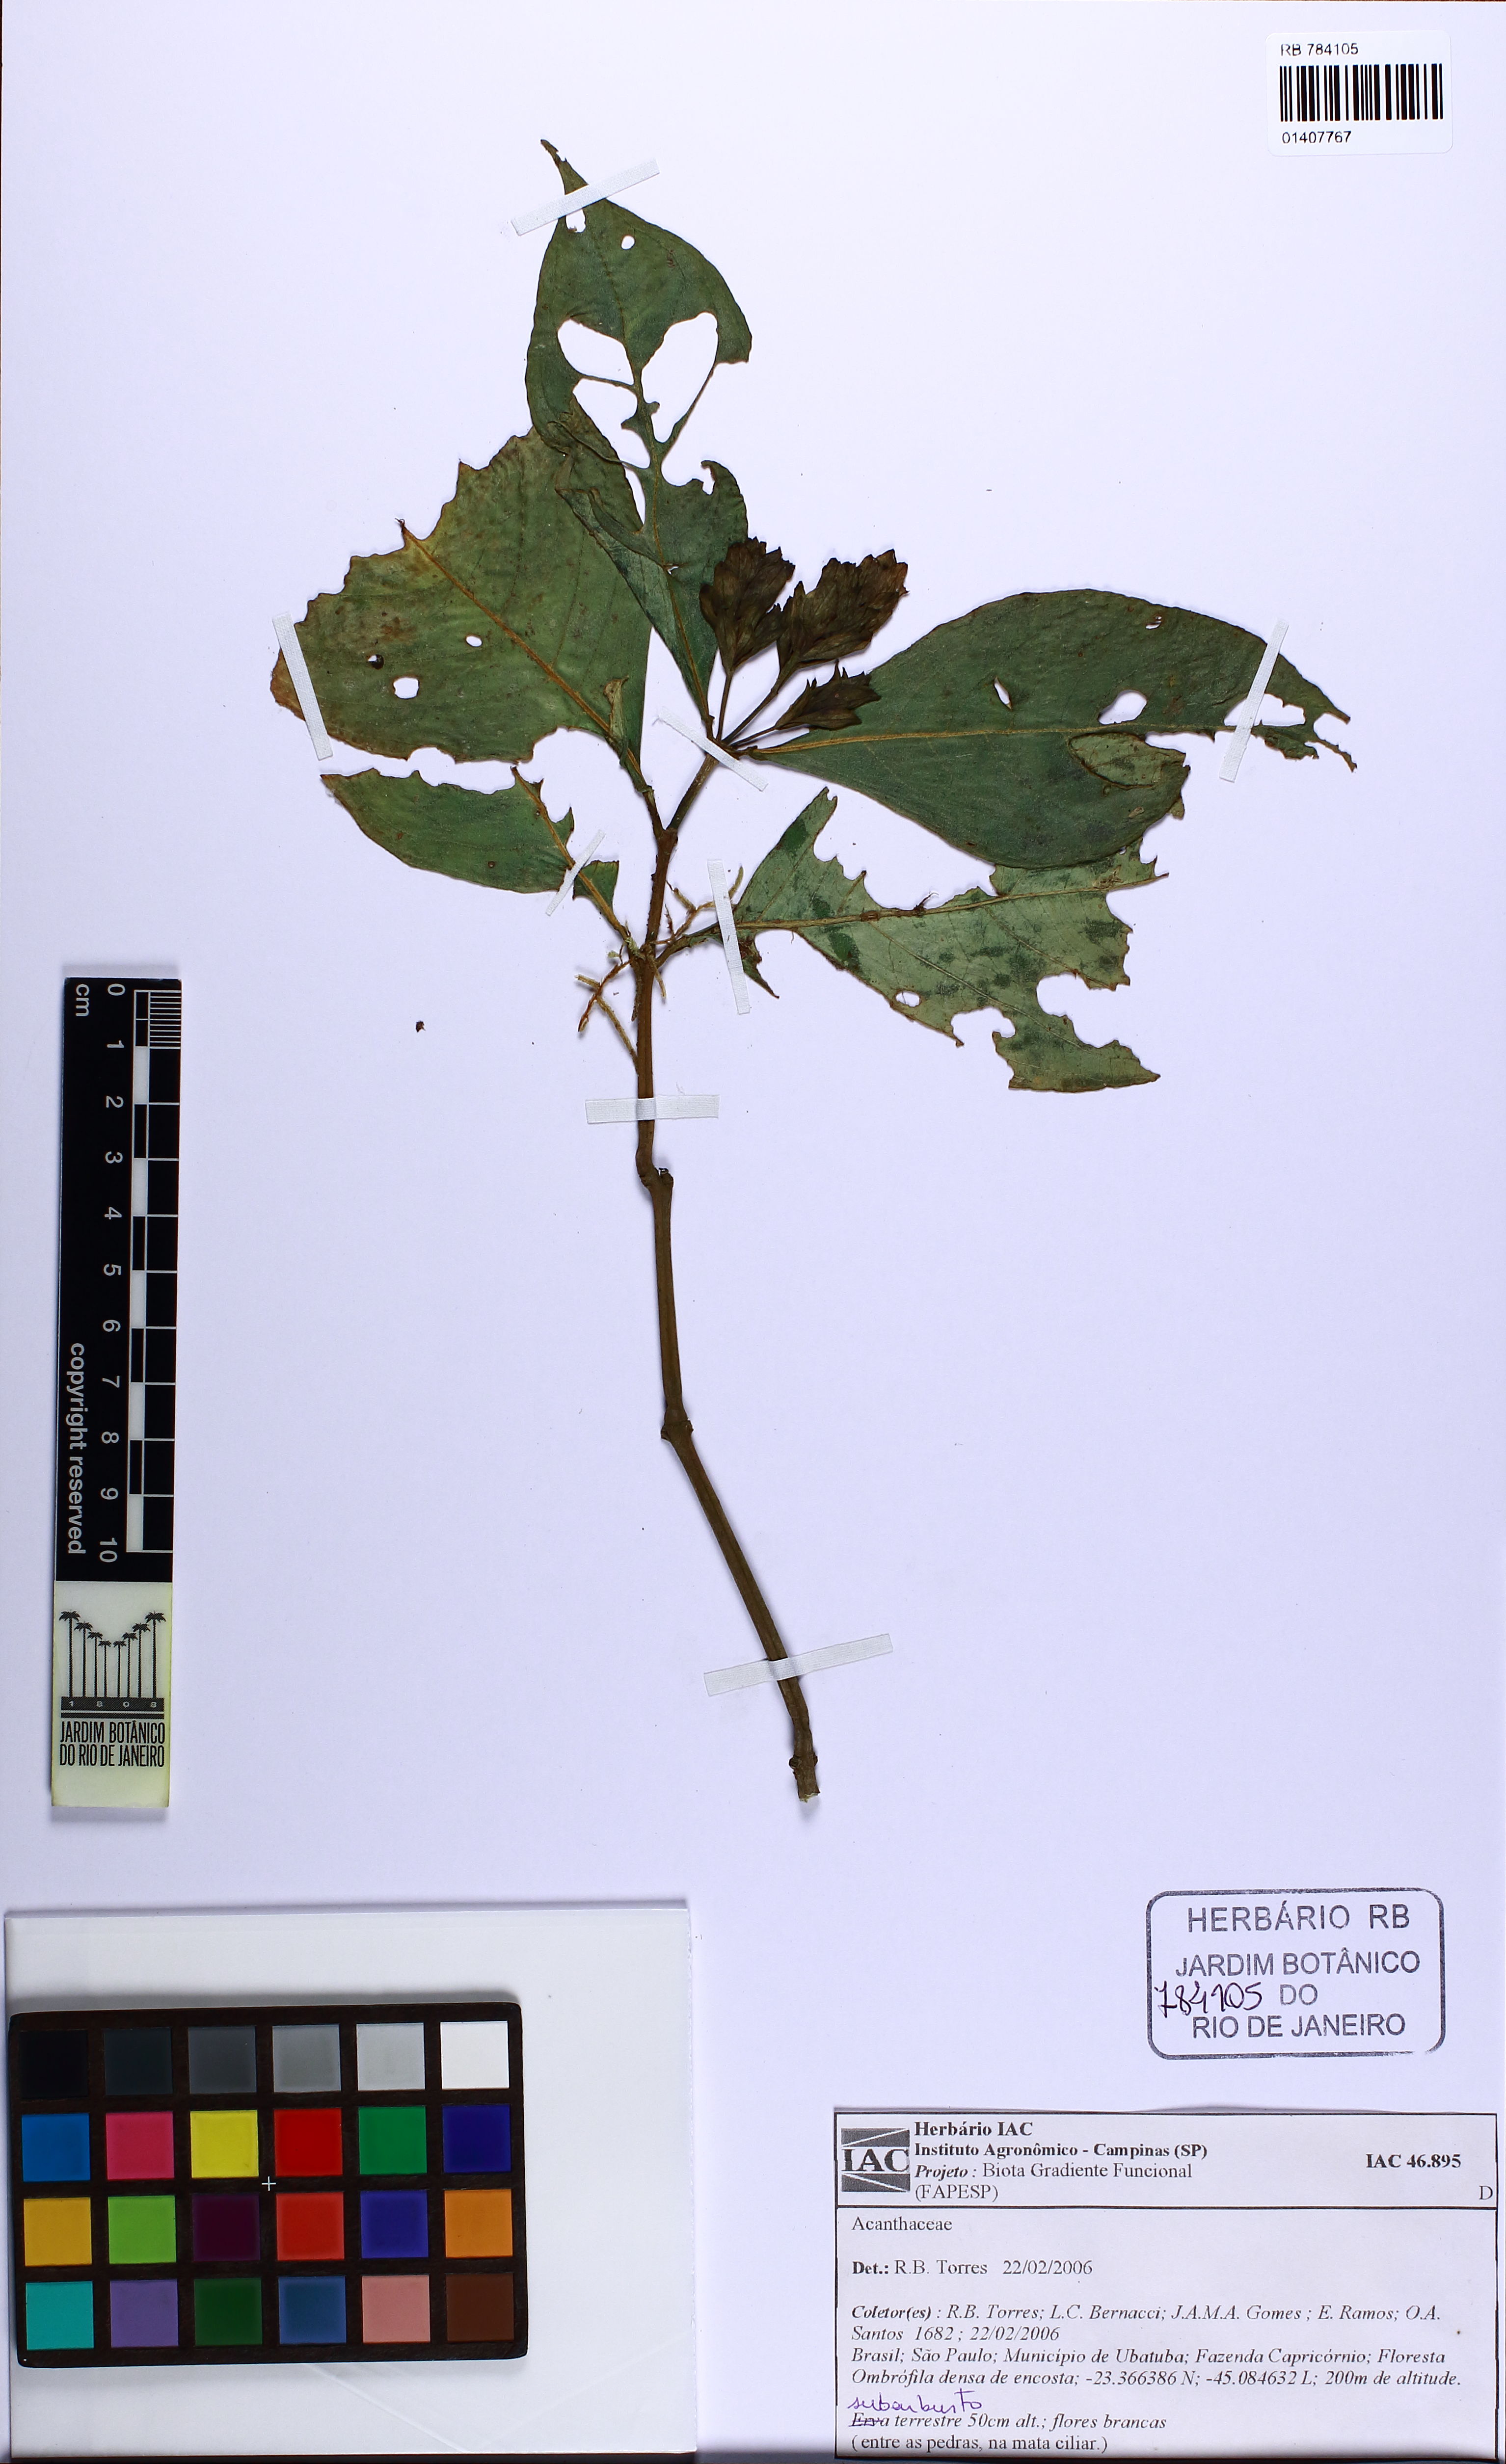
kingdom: Plantae
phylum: Tracheophyta
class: Magnoliopsida
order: Lamiales
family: Acanthaceae
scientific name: Acanthaceae
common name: Acanthaceae
